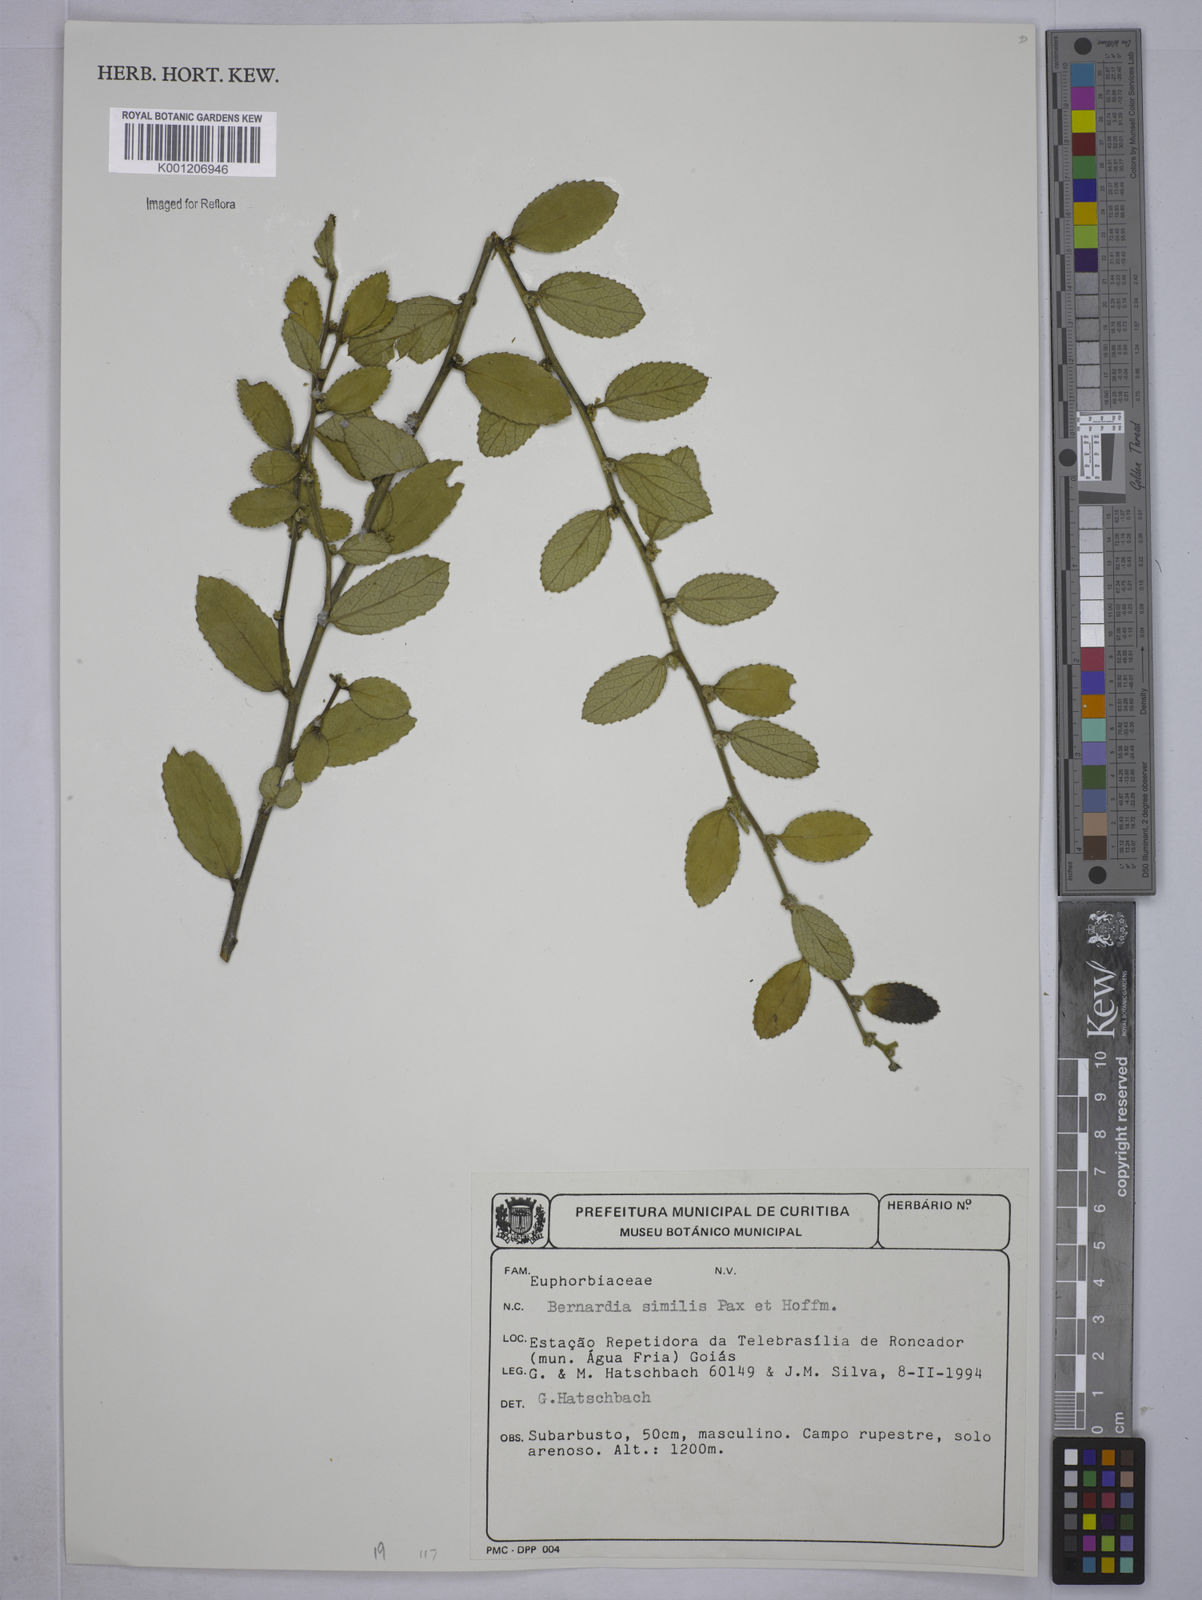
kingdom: Plantae
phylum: Tracheophyta
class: Magnoliopsida
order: Malpighiales
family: Euphorbiaceae
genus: Bernardia
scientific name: Bernardia gardneri
